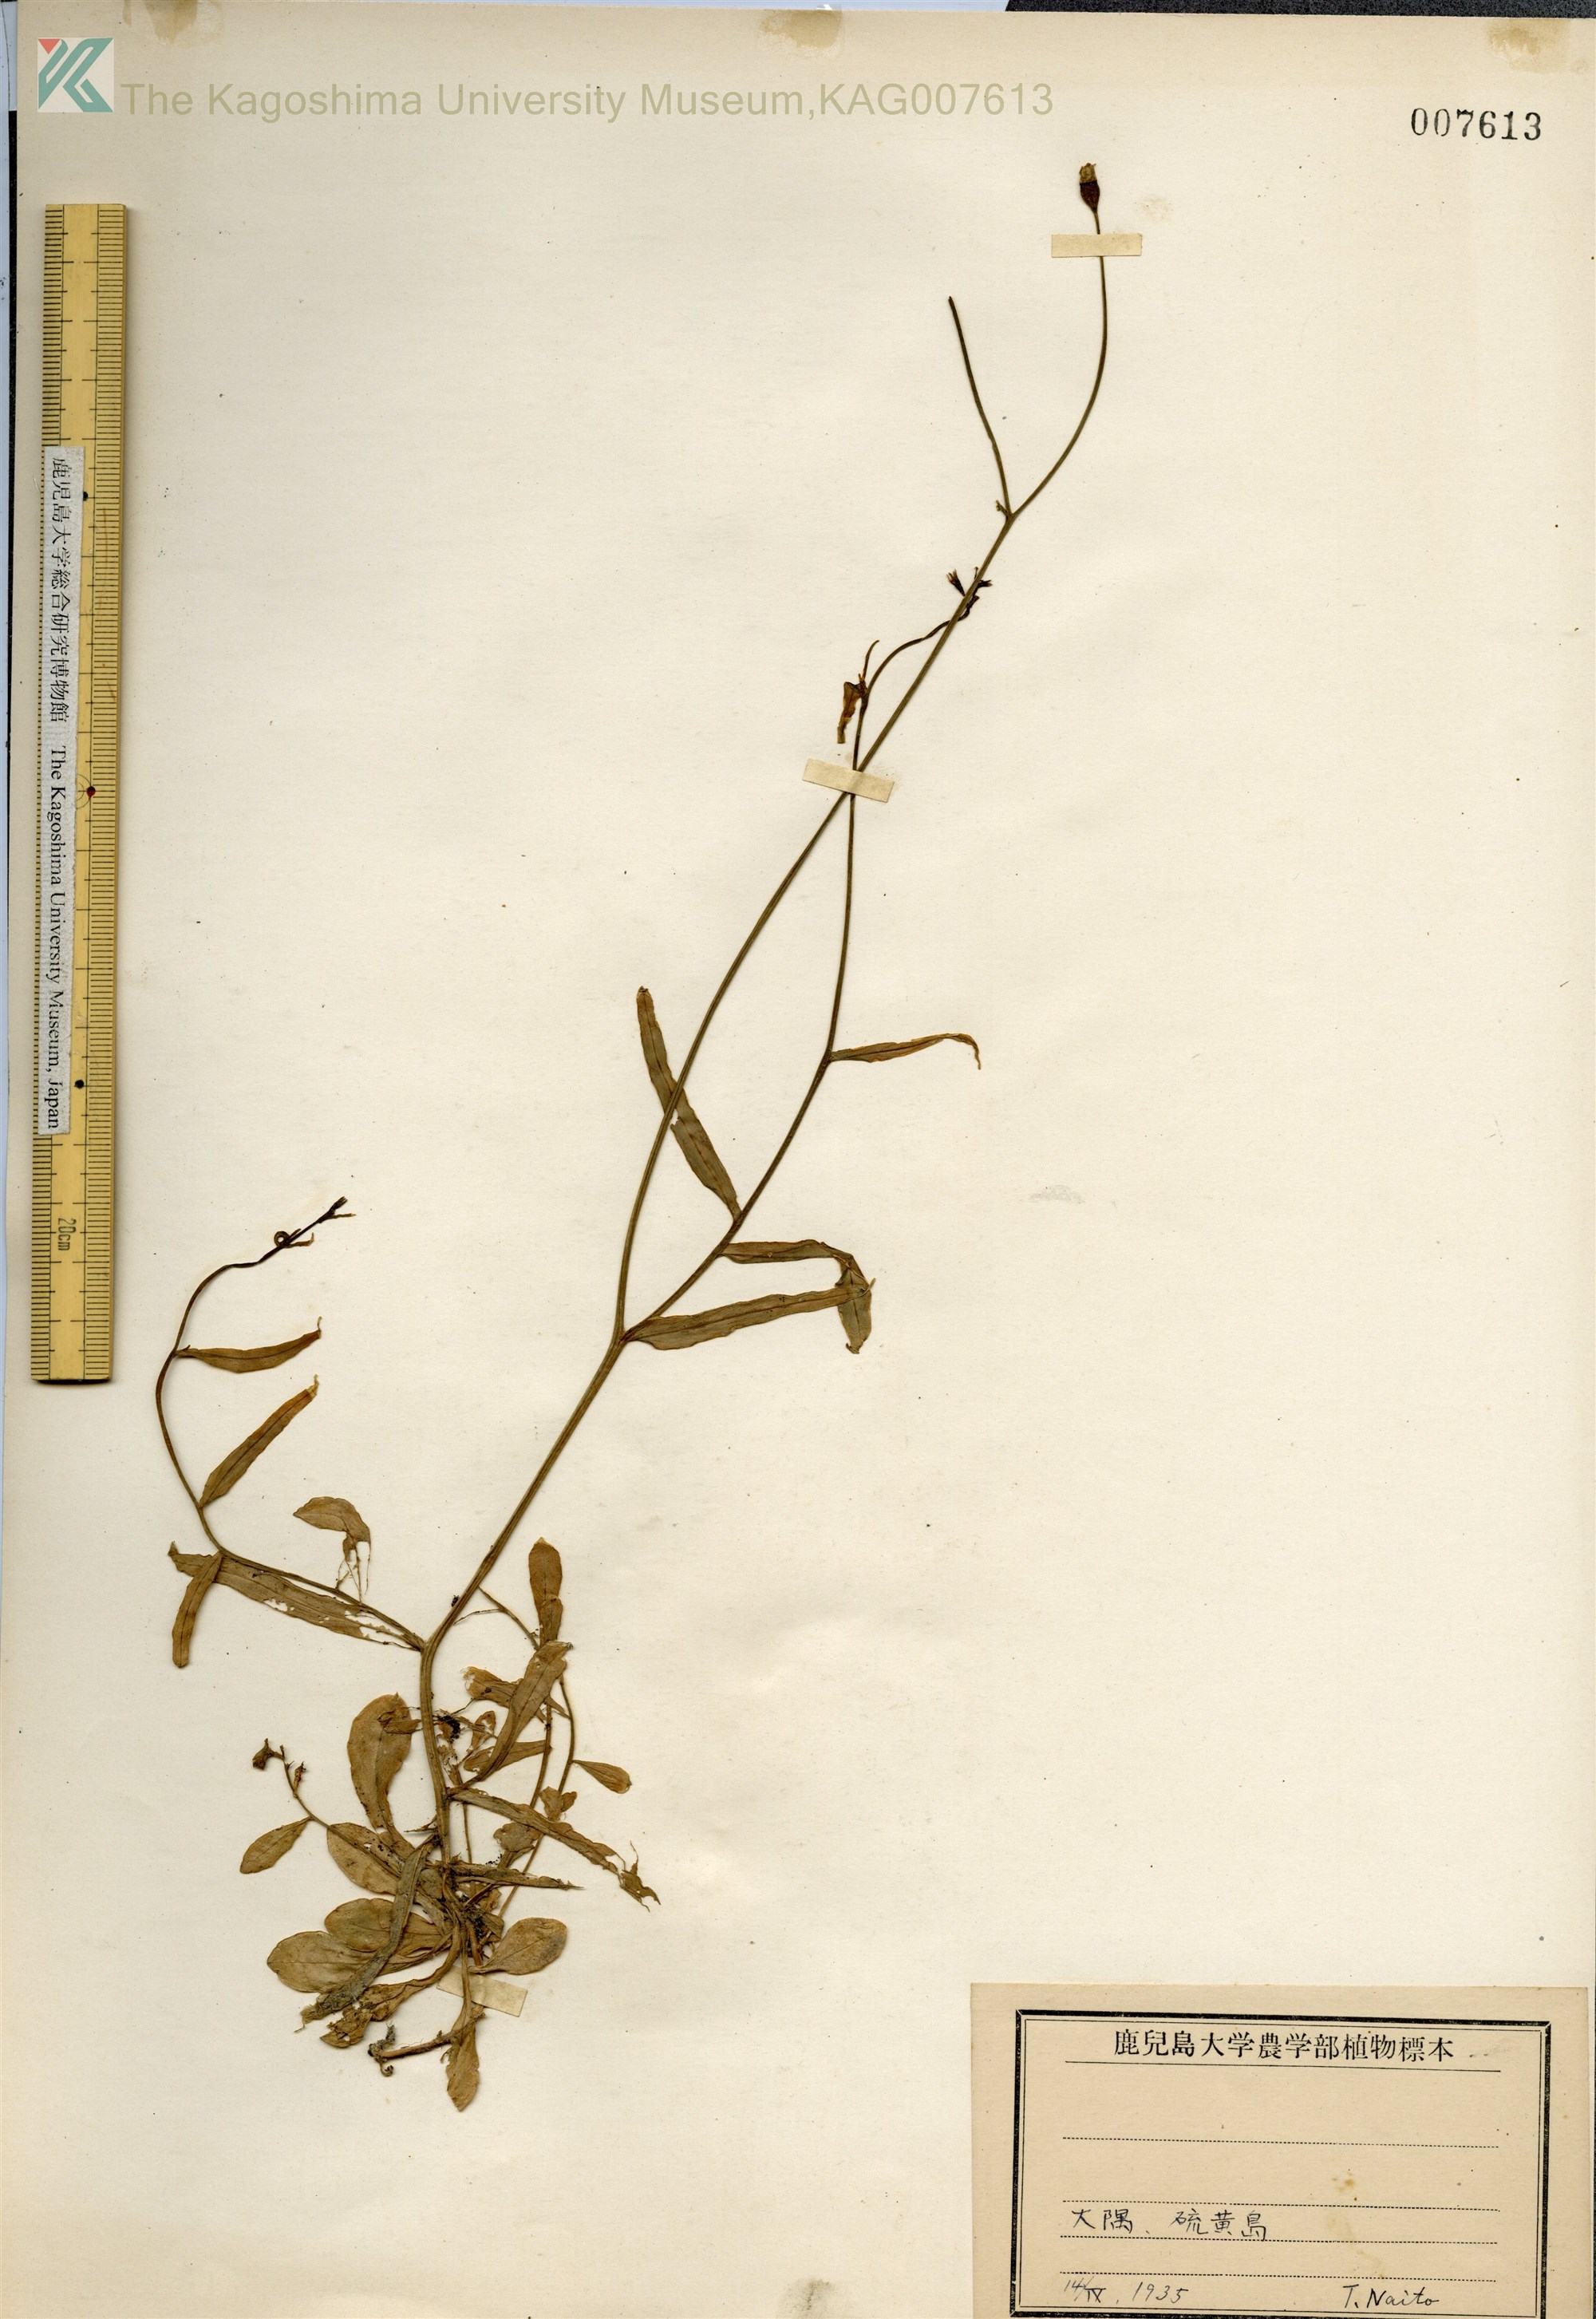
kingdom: Plantae
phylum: Tracheophyta
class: Magnoliopsida
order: Asterales
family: Campanulaceae
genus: Wahlenbergia
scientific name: Wahlenbergia marginata
